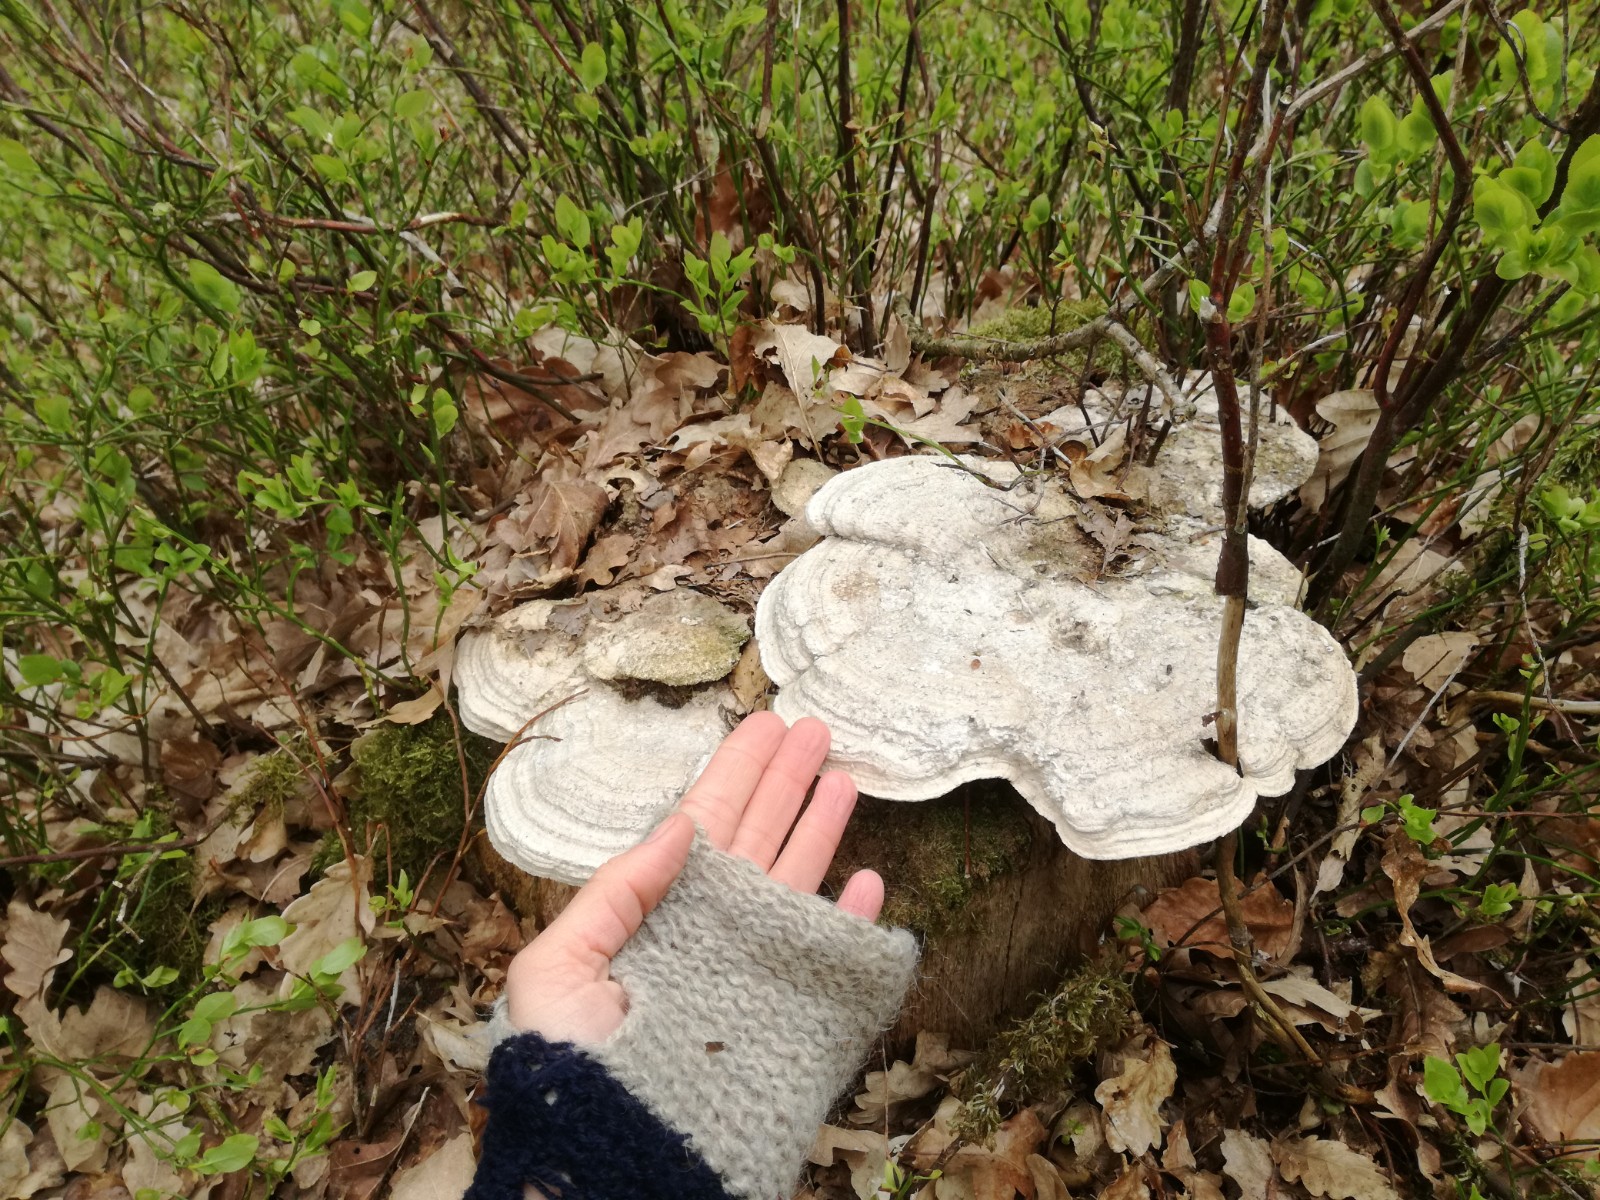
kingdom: Fungi
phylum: Basidiomycota
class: Agaricomycetes
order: Polyporales
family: Fomitopsidaceae
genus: Daedalea
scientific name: Daedalea quercina
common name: ege-labyrintsvamp
